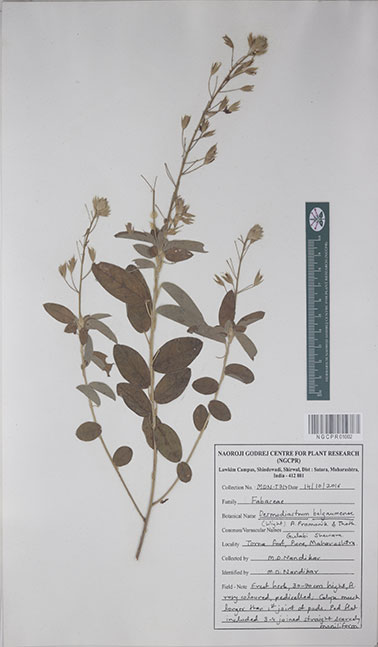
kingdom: Plantae
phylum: Tracheophyta
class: Magnoliopsida
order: Fabales
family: Fabaceae
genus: Alysicarpus
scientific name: Alysicarpus belgaumensis
